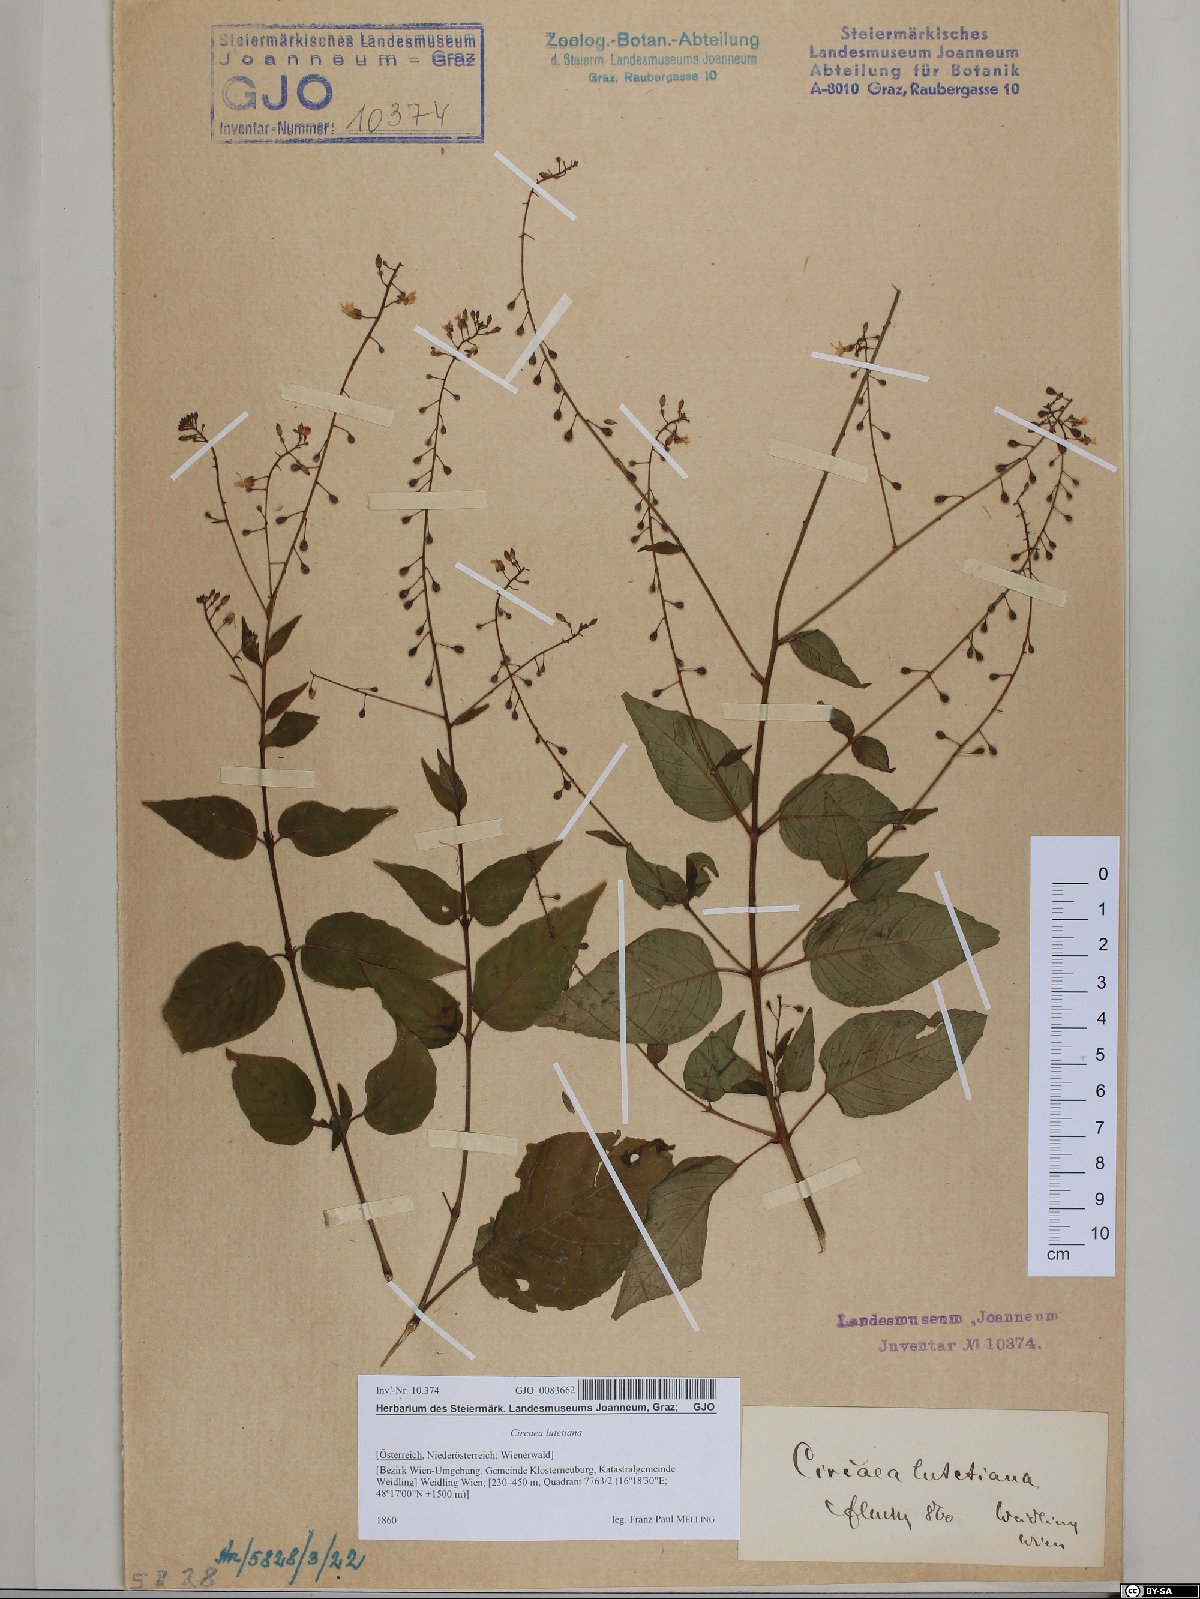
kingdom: Plantae
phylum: Tracheophyta
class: Magnoliopsida
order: Myrtales
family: Onagraceae
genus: Circaea
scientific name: Circaea lutetiana
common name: Enchanter's-nightshade
